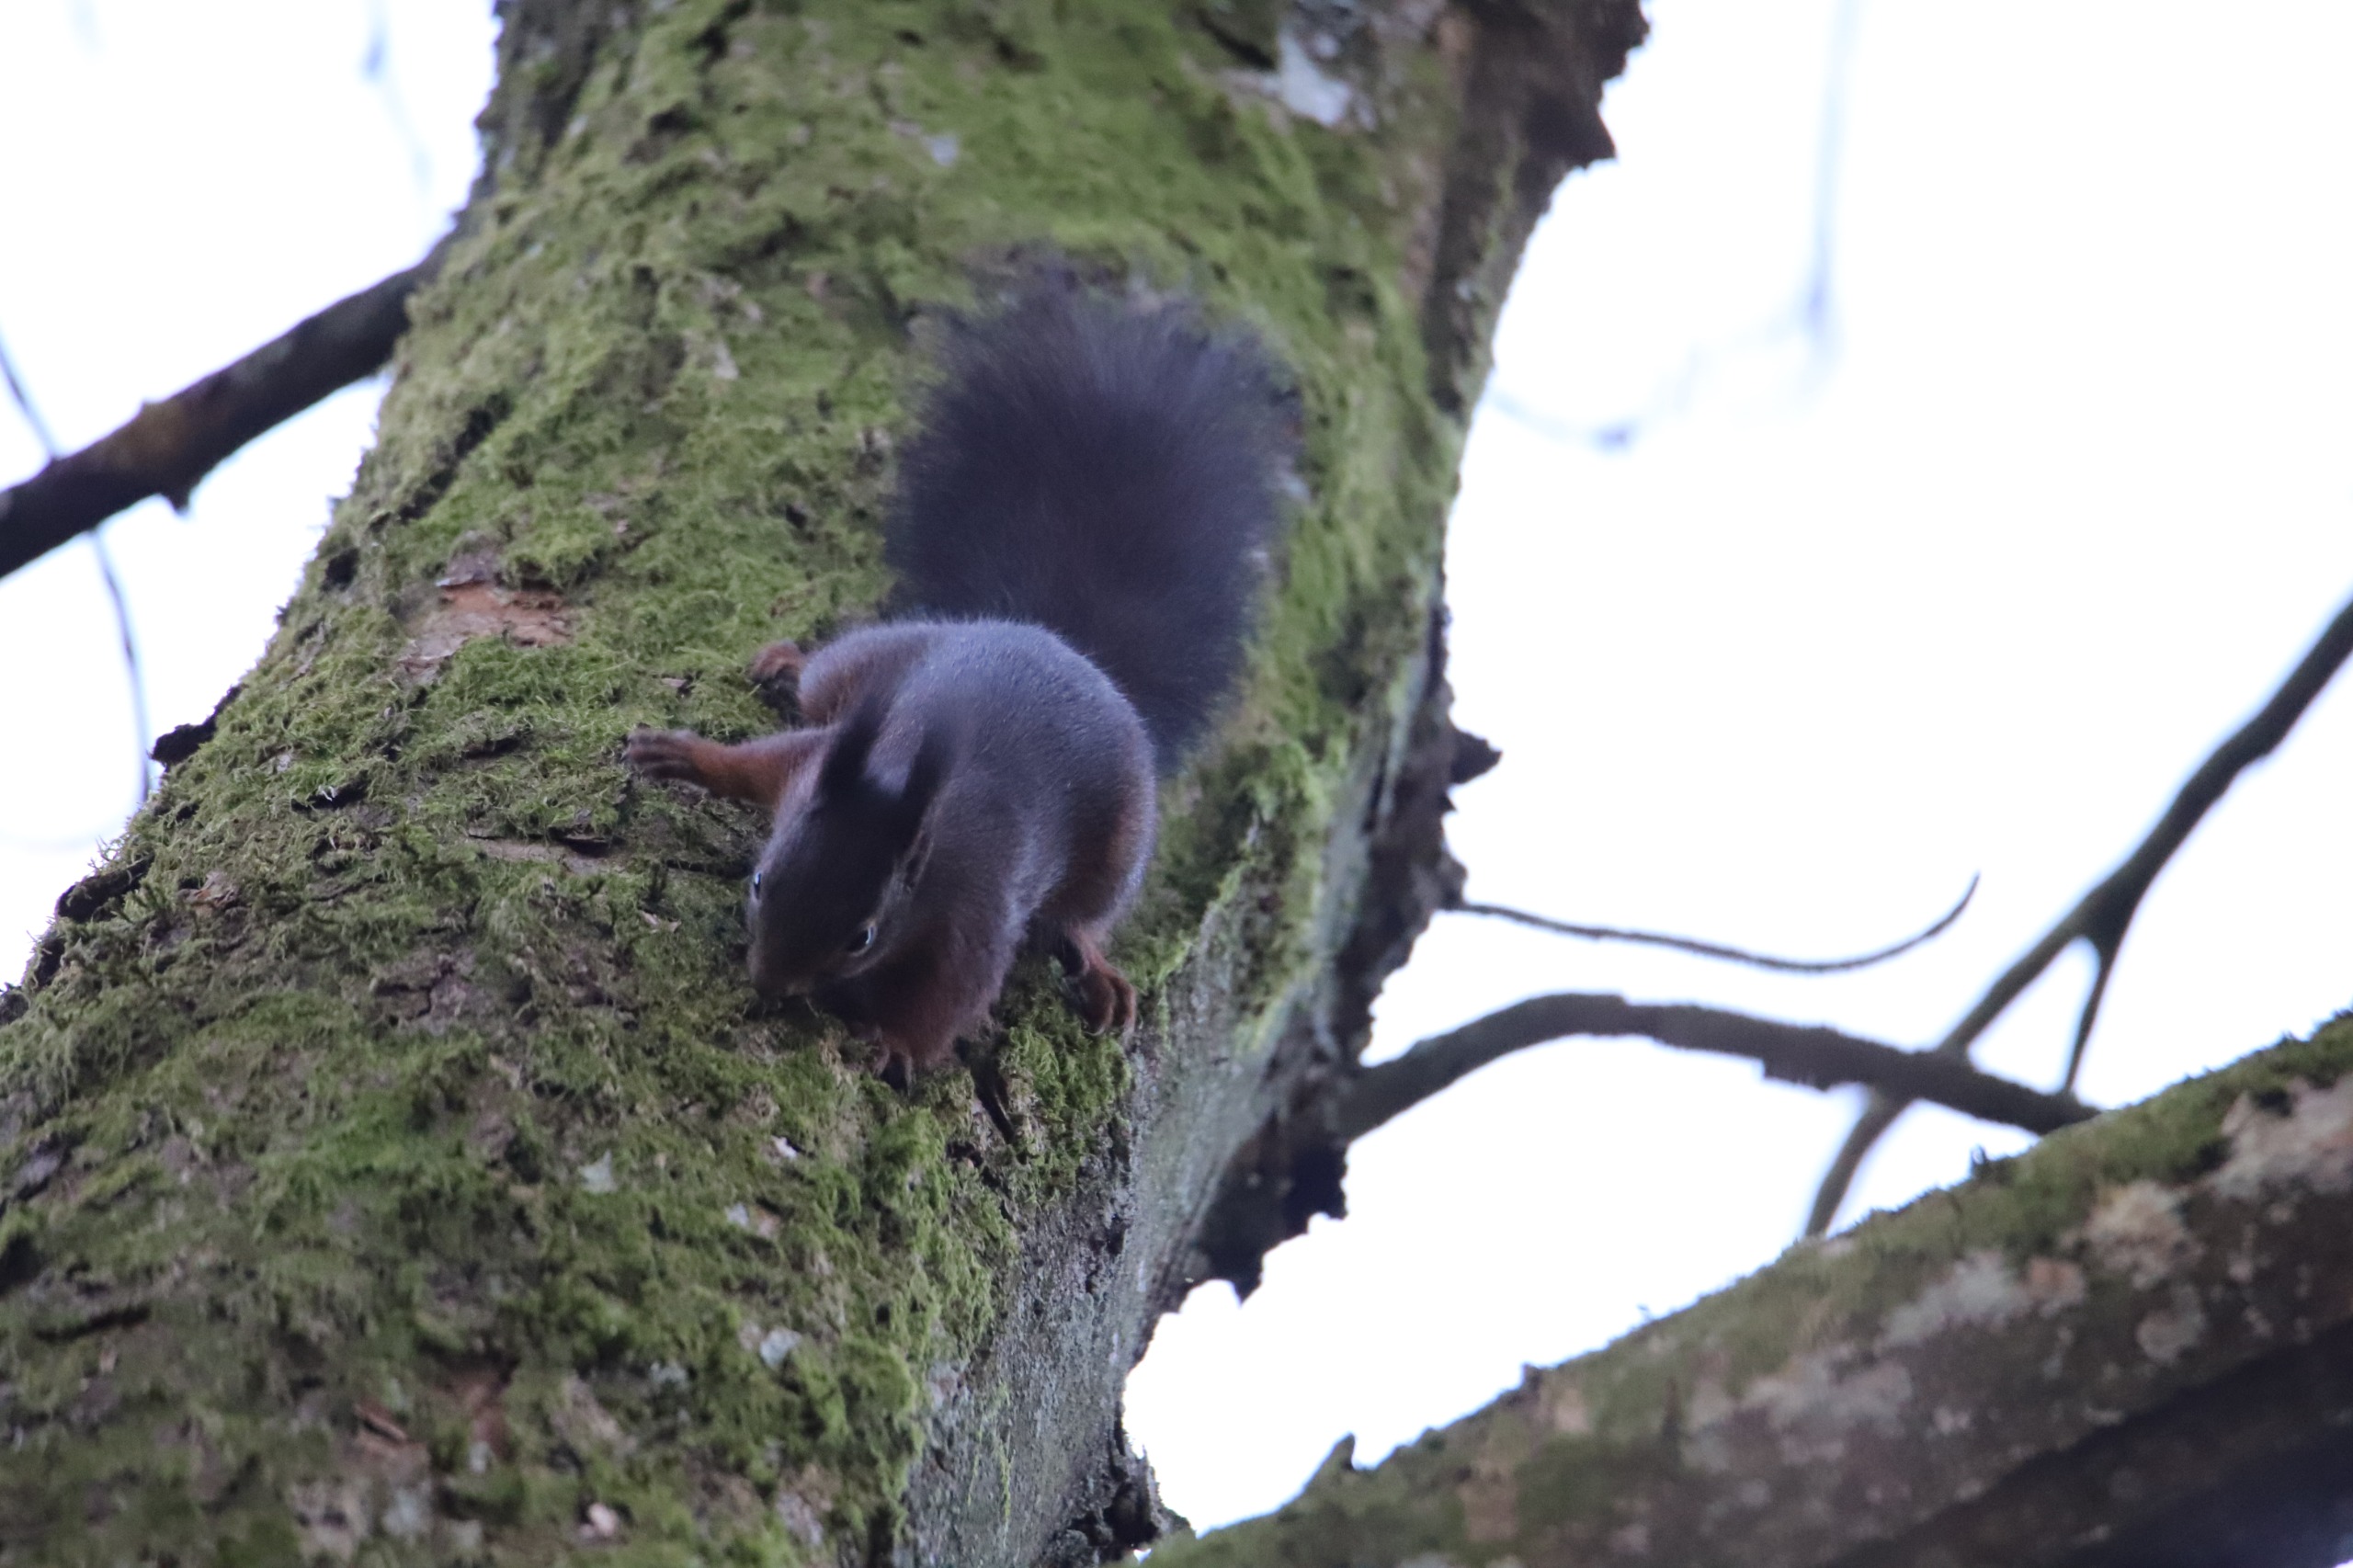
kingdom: Animalia
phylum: Chordata
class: Mammalia
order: Rodentia
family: Sciuridae
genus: Sciurus
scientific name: Sciurus vulgaris
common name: Egern
